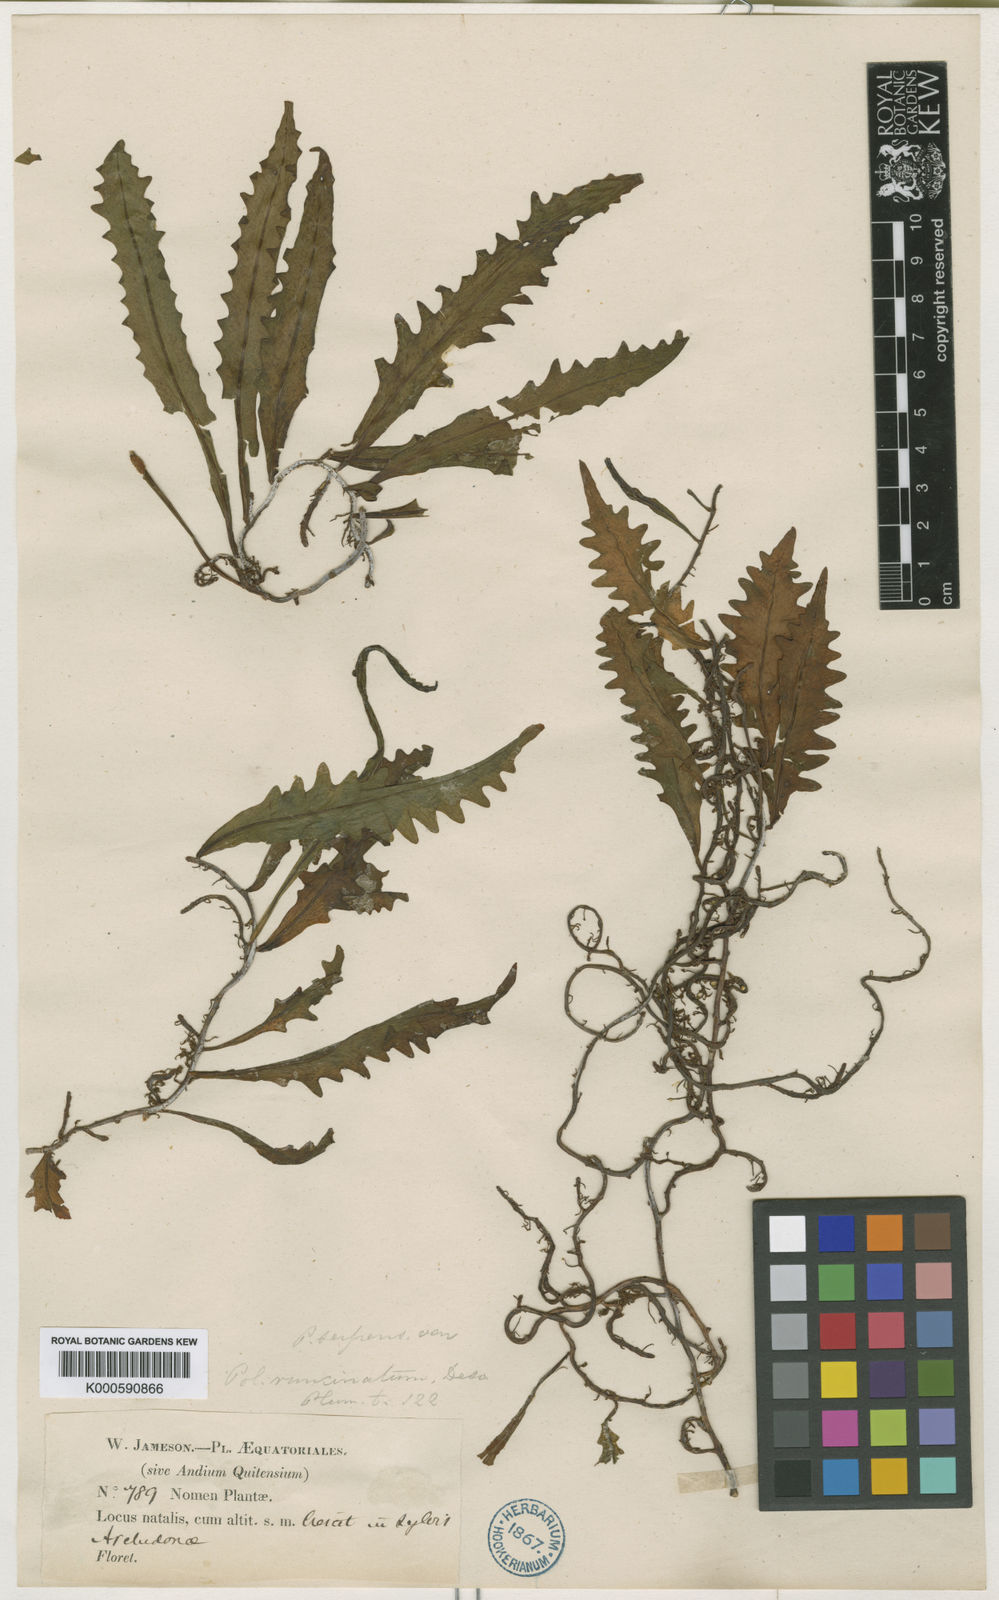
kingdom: Plantae
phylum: Tracheophyta
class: Polypodiopsida
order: Polypodiales
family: Polypodiaceae
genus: Microgramma
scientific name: Microgramma bifrons
